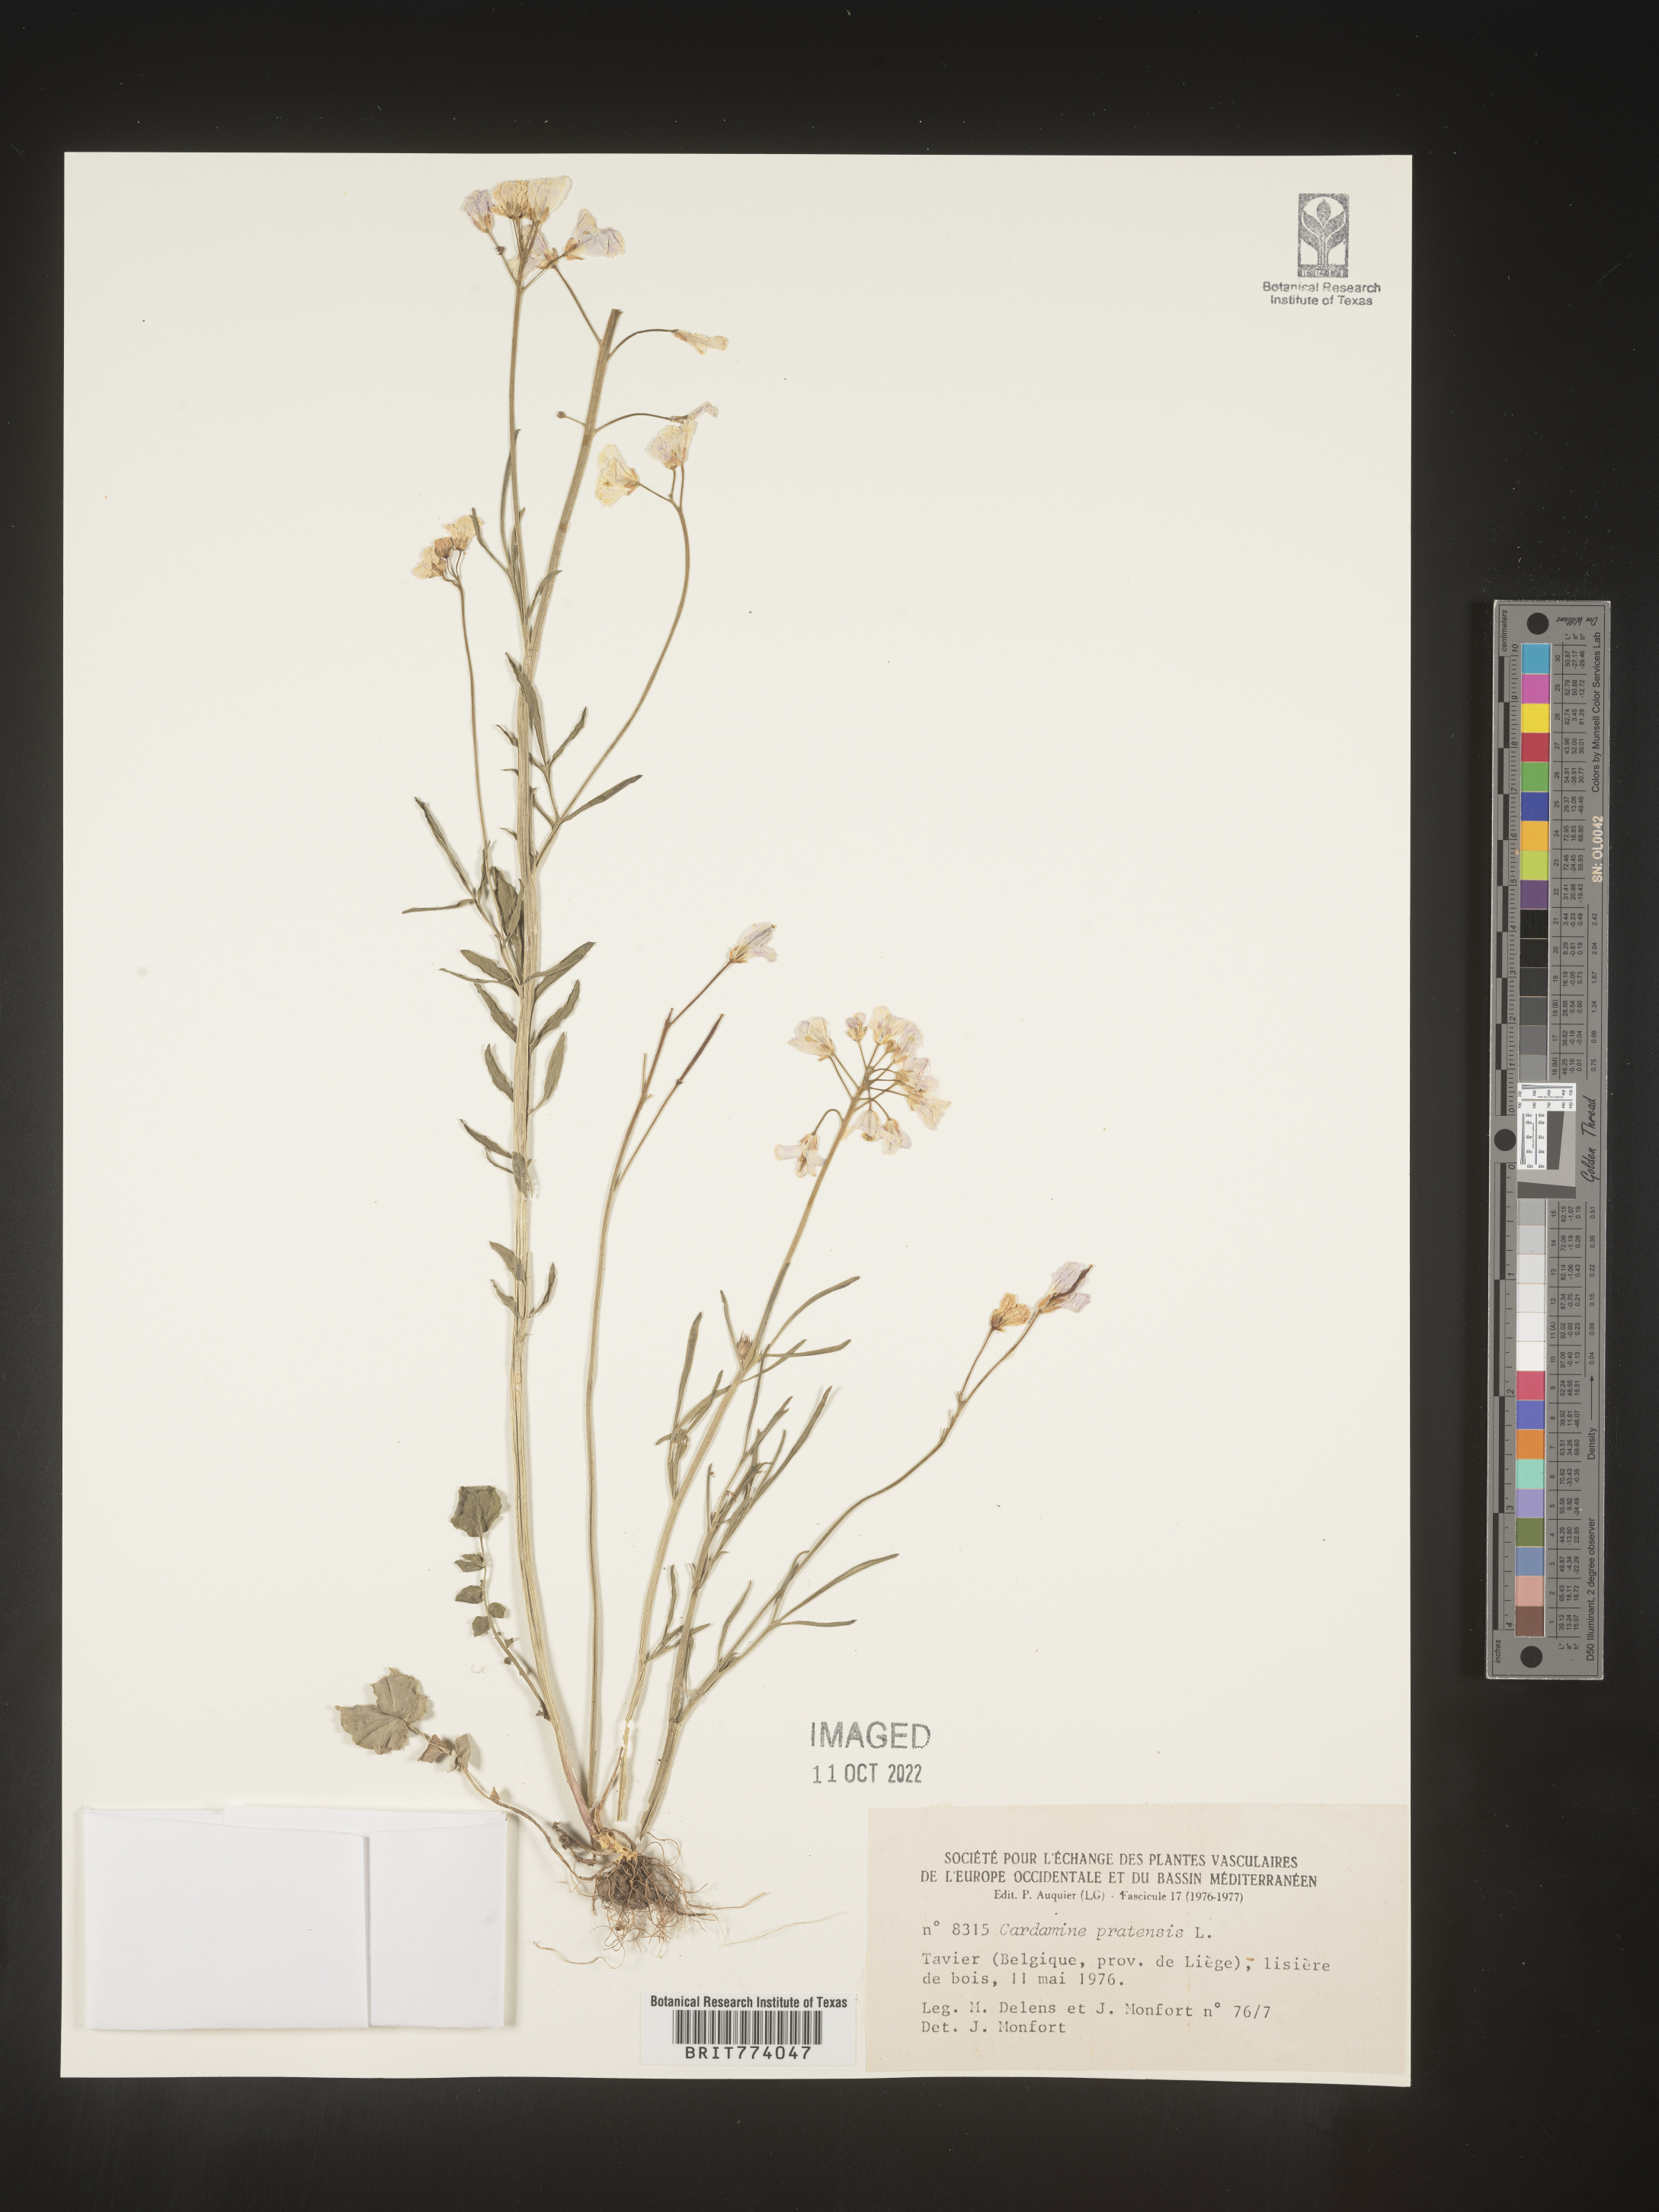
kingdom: Plantae
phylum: Tracheophyta
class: Magnoliopsida
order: Brassicales
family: Brassicaceae
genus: Cardamine
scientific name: Cardamine pratensis
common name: Cuckoo flower
